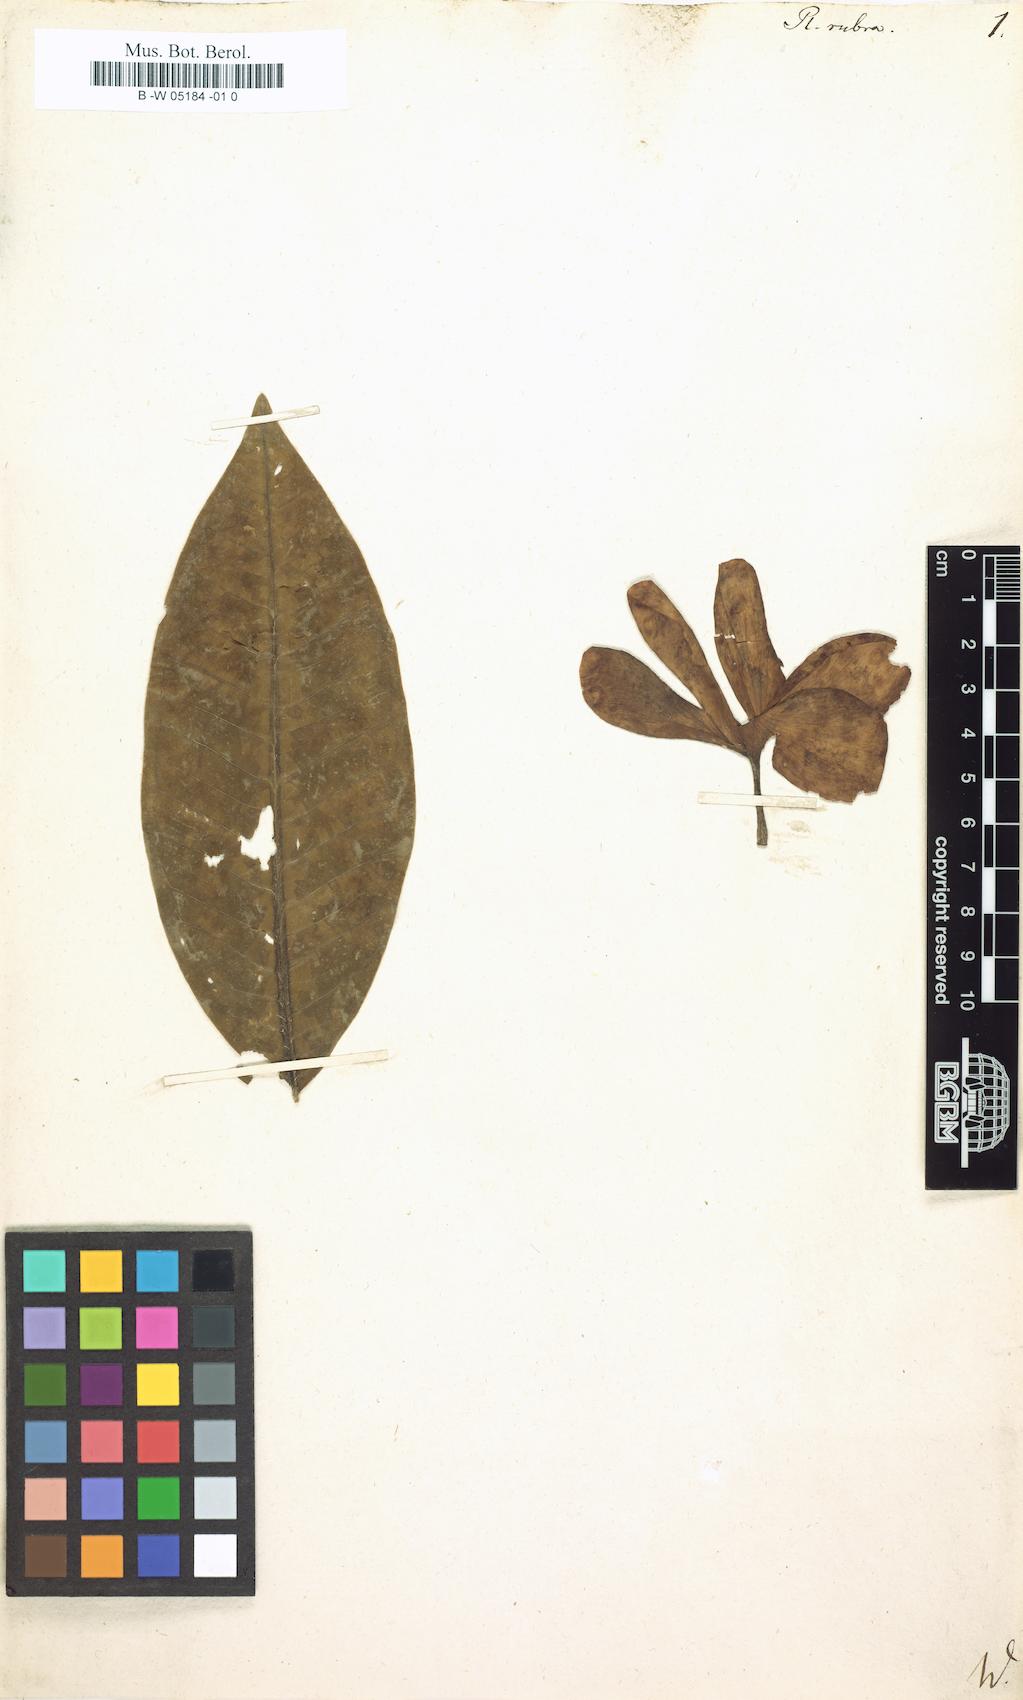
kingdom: Plantae
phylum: Tracheophyta
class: Magnoliopsida
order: Gentianales
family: Apocynaceae
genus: Plumeria
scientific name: Plumeria rubra
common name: Pagoda-tree
